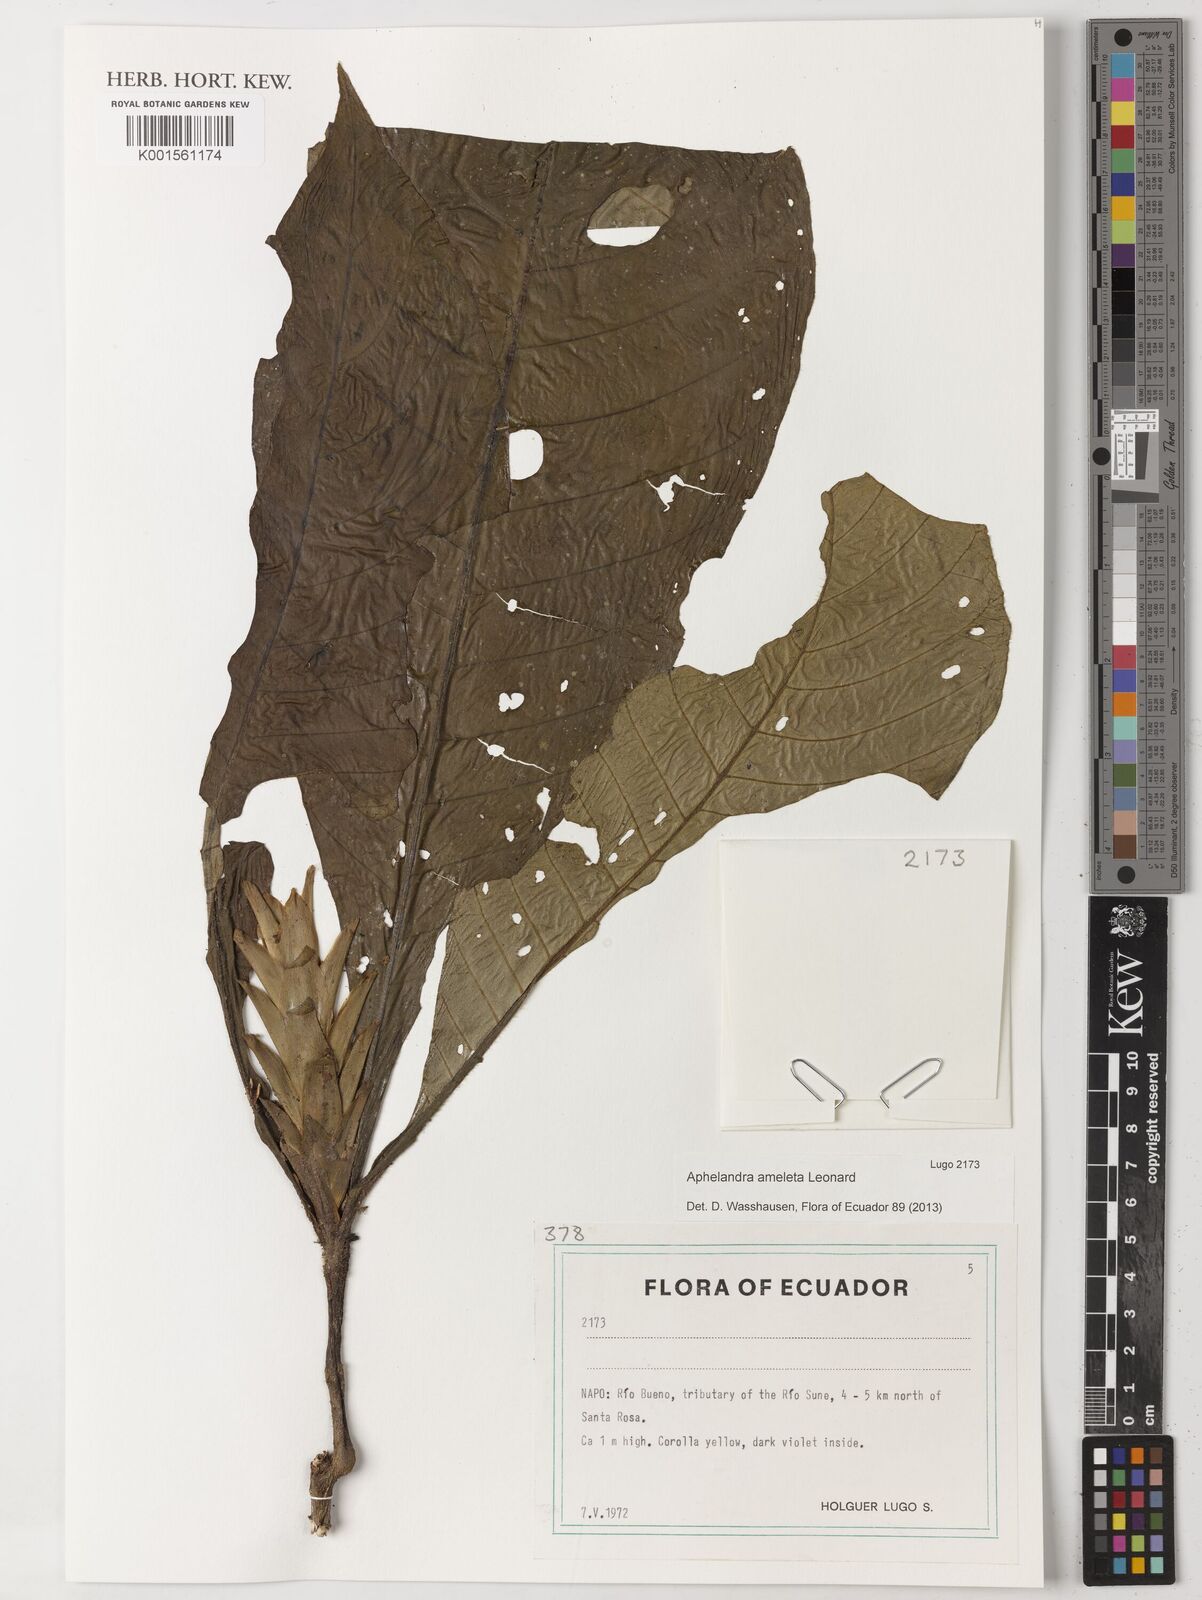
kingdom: Plantae
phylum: Tracheophyta
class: Magnoliopsida
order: Lamiales
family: Acanthaceae
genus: Aphelandra
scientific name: Aphelandra ameleta
